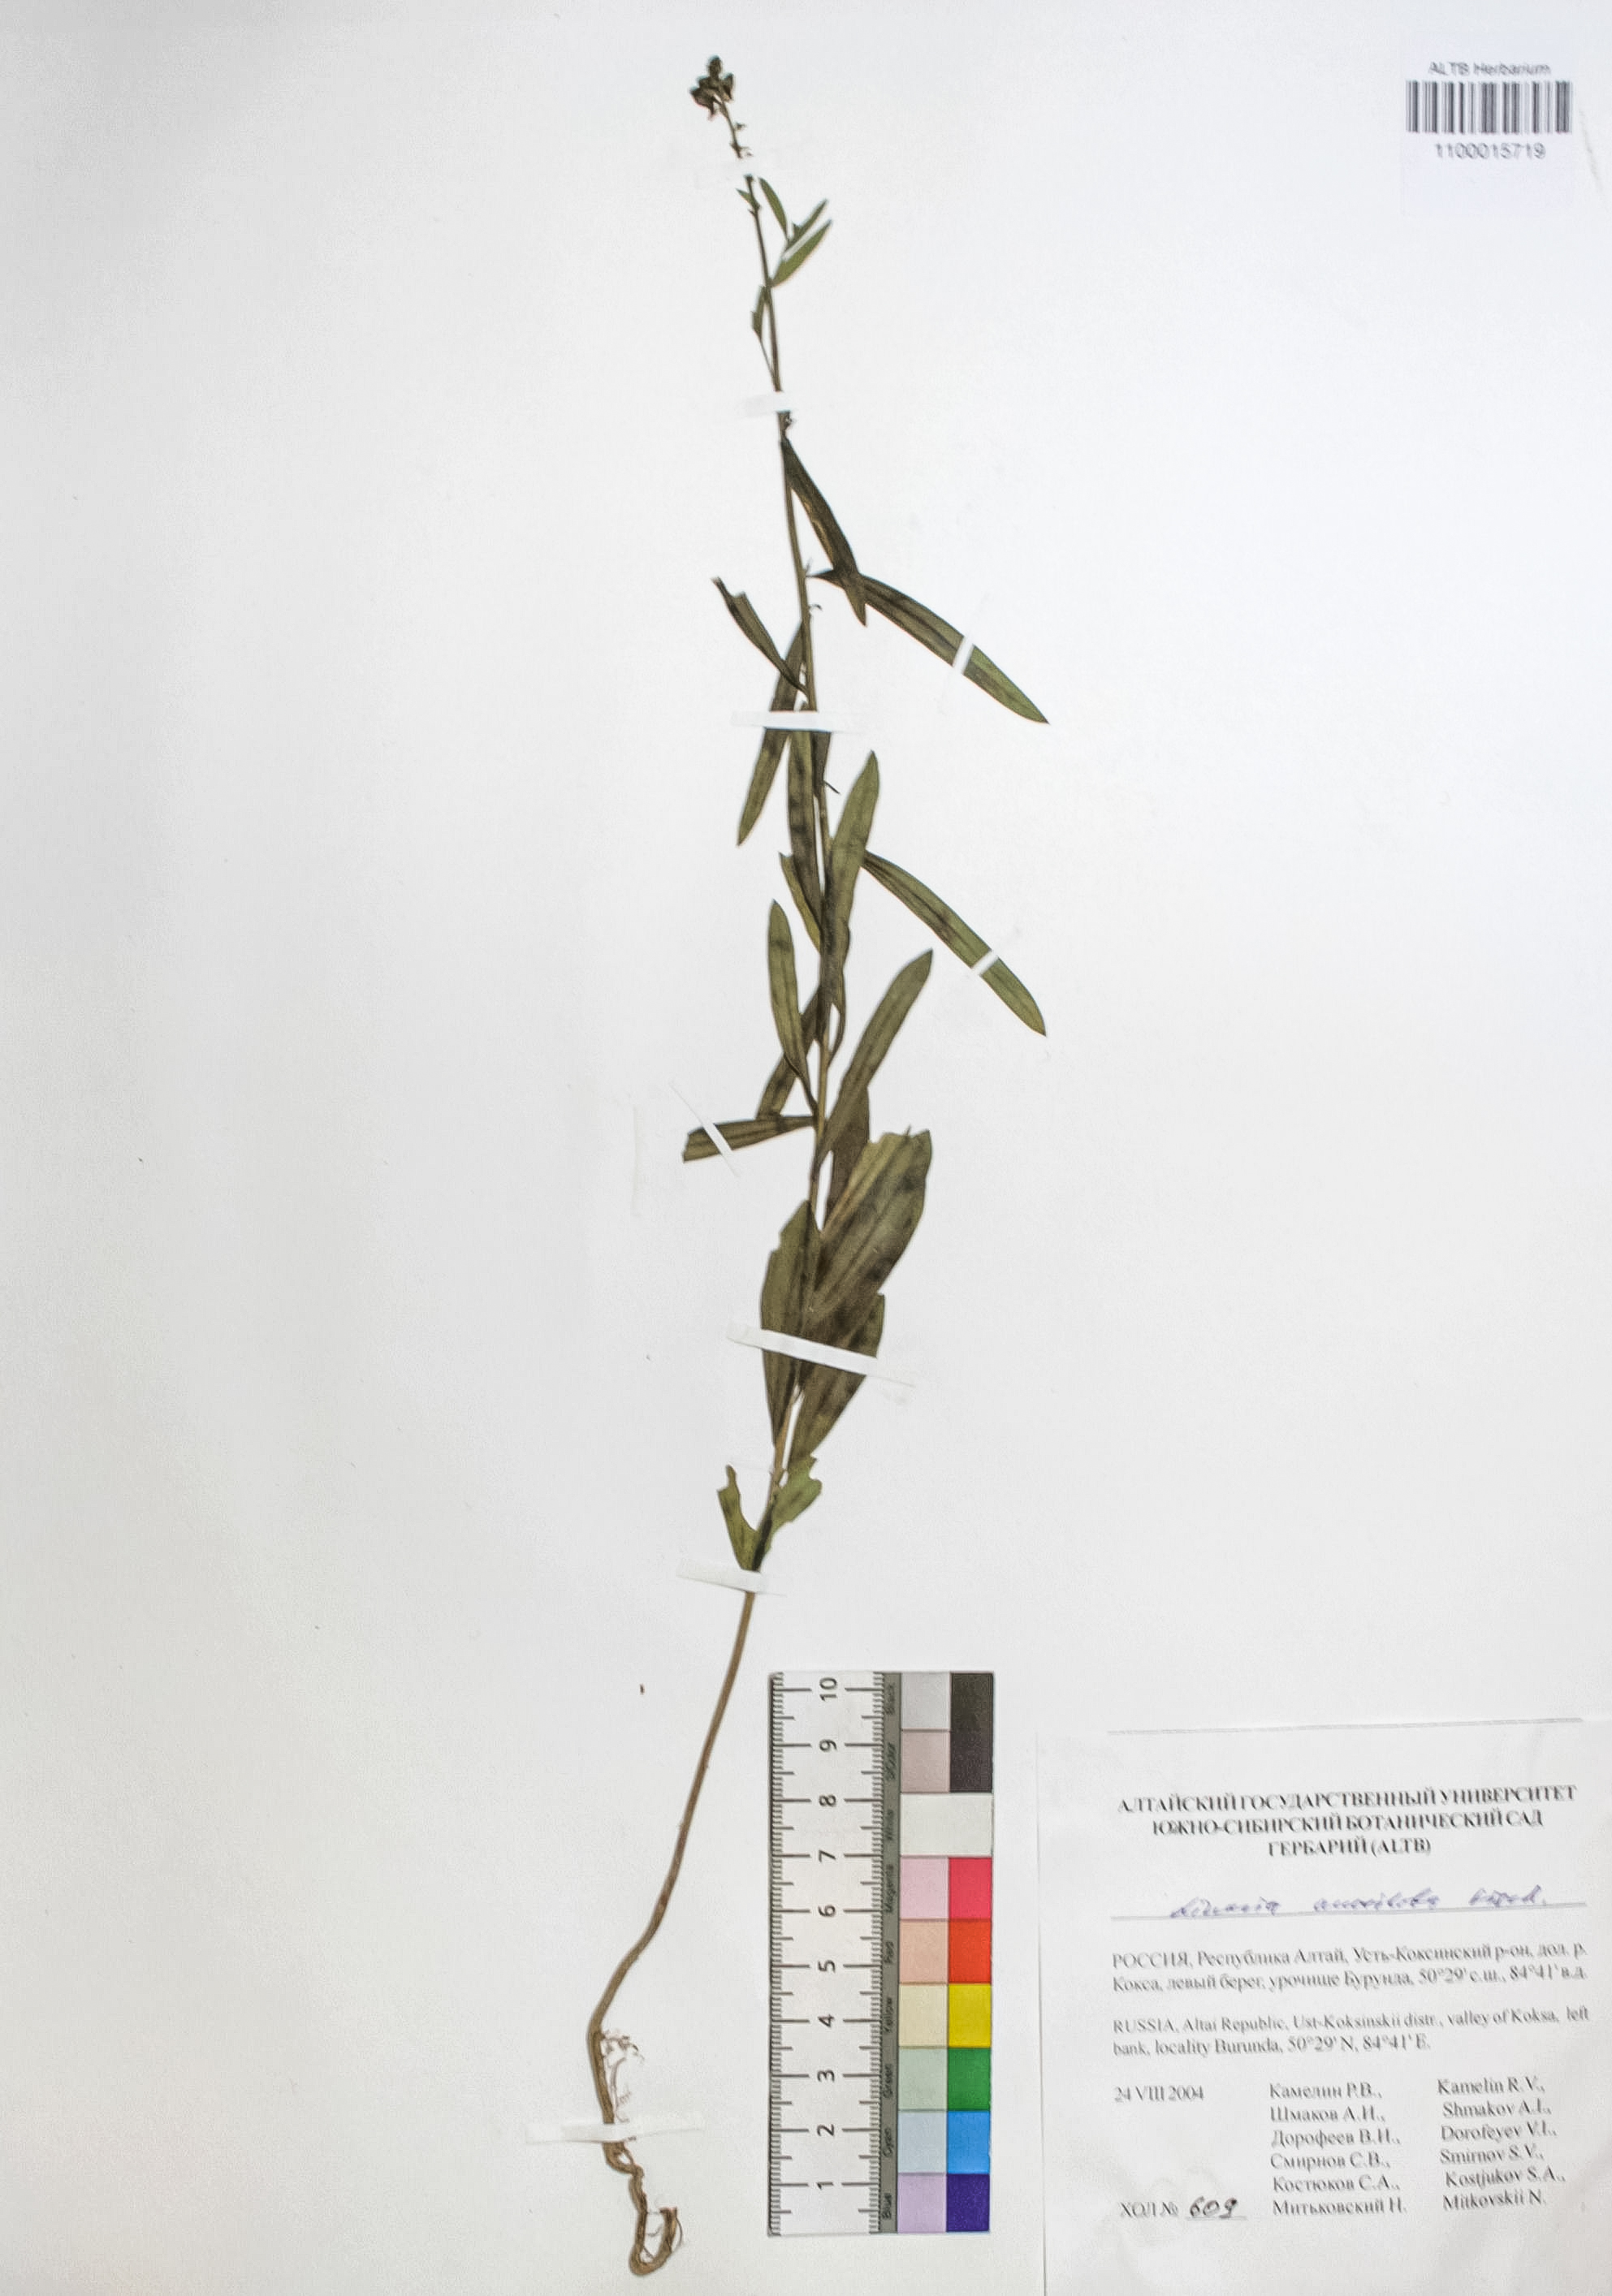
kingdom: Plantae
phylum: Tracheophyta
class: Magnoliopsida
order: Lamiales
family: Plantaginaceae
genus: Linaria
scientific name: Linaria acutiloba
